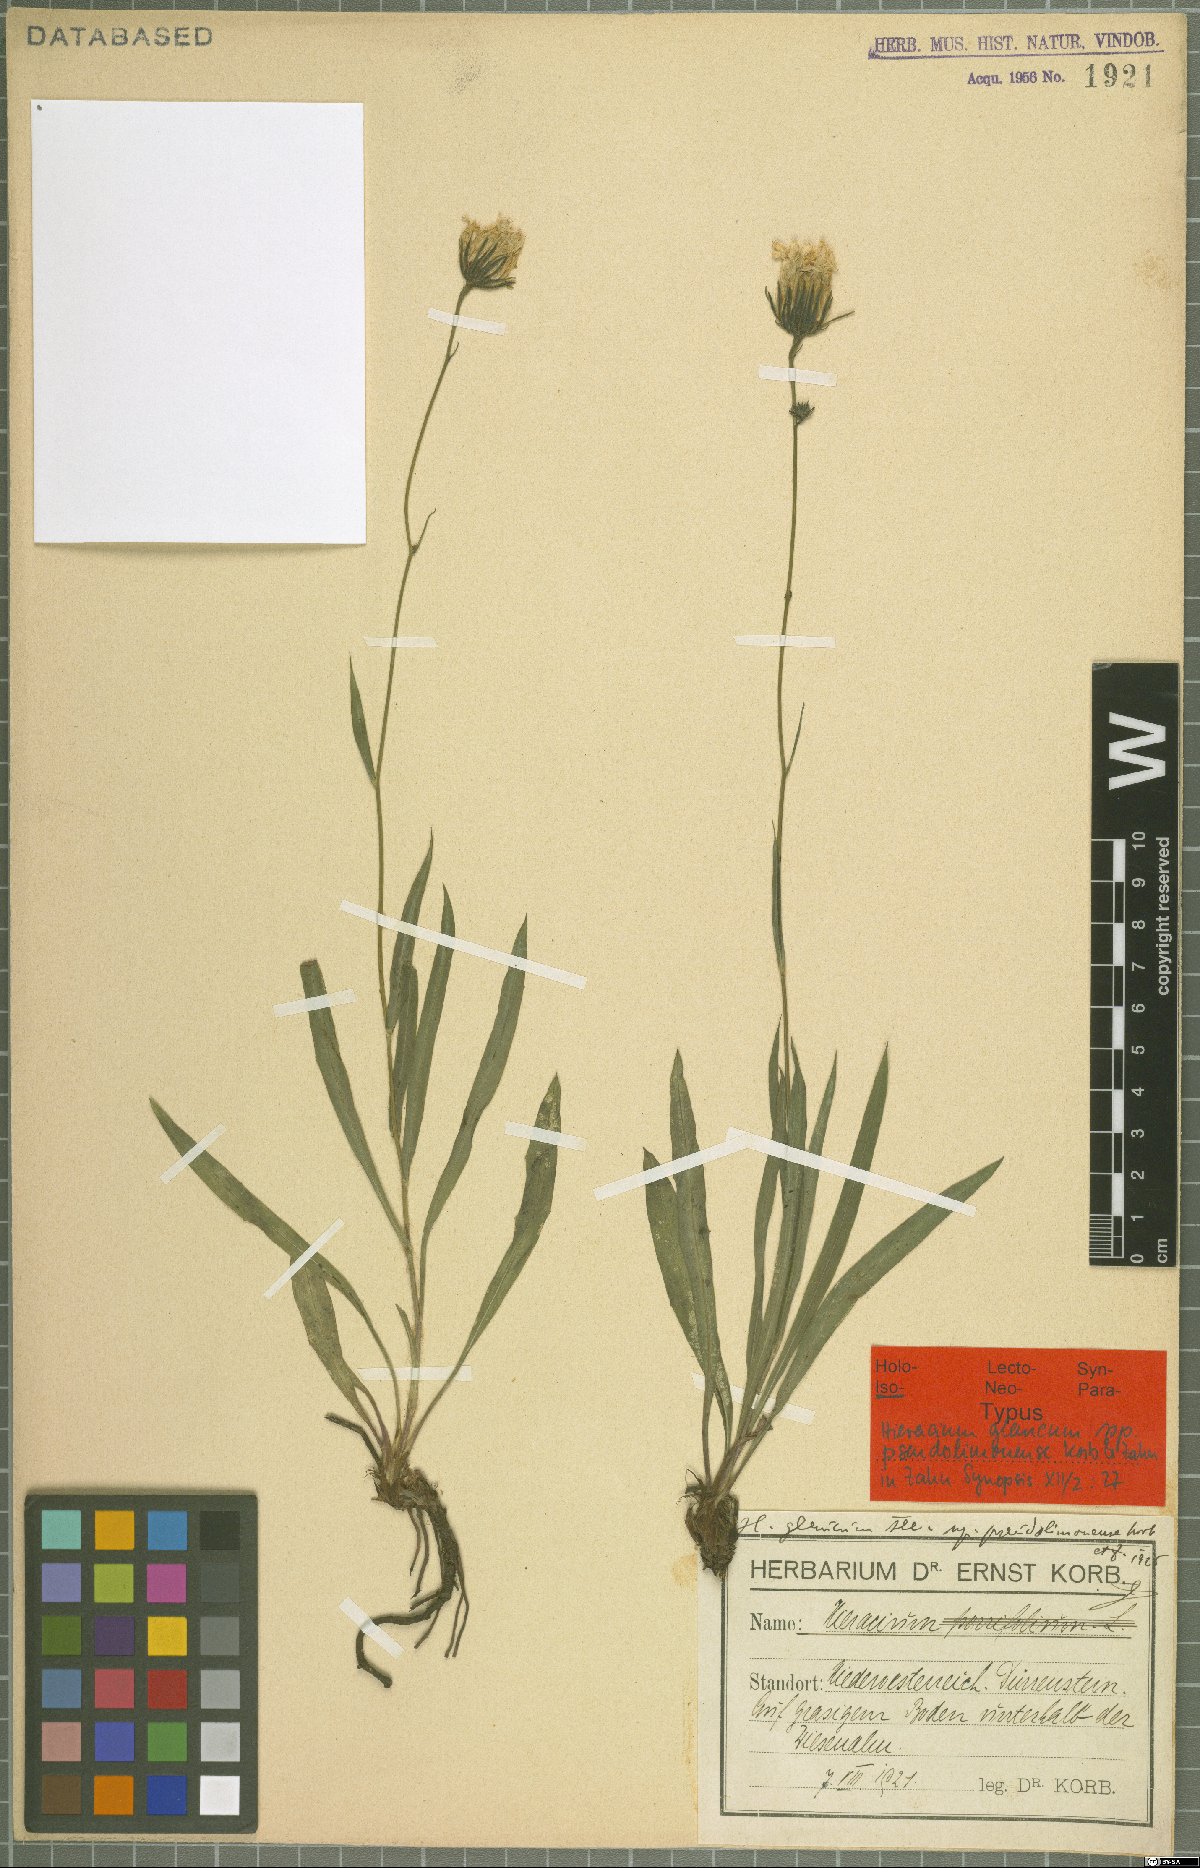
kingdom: Plantae
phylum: Tracheophyta
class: Magnoliopsida
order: Asterales
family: Asteraceae
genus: Hieracium
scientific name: Hieracium glaucum
